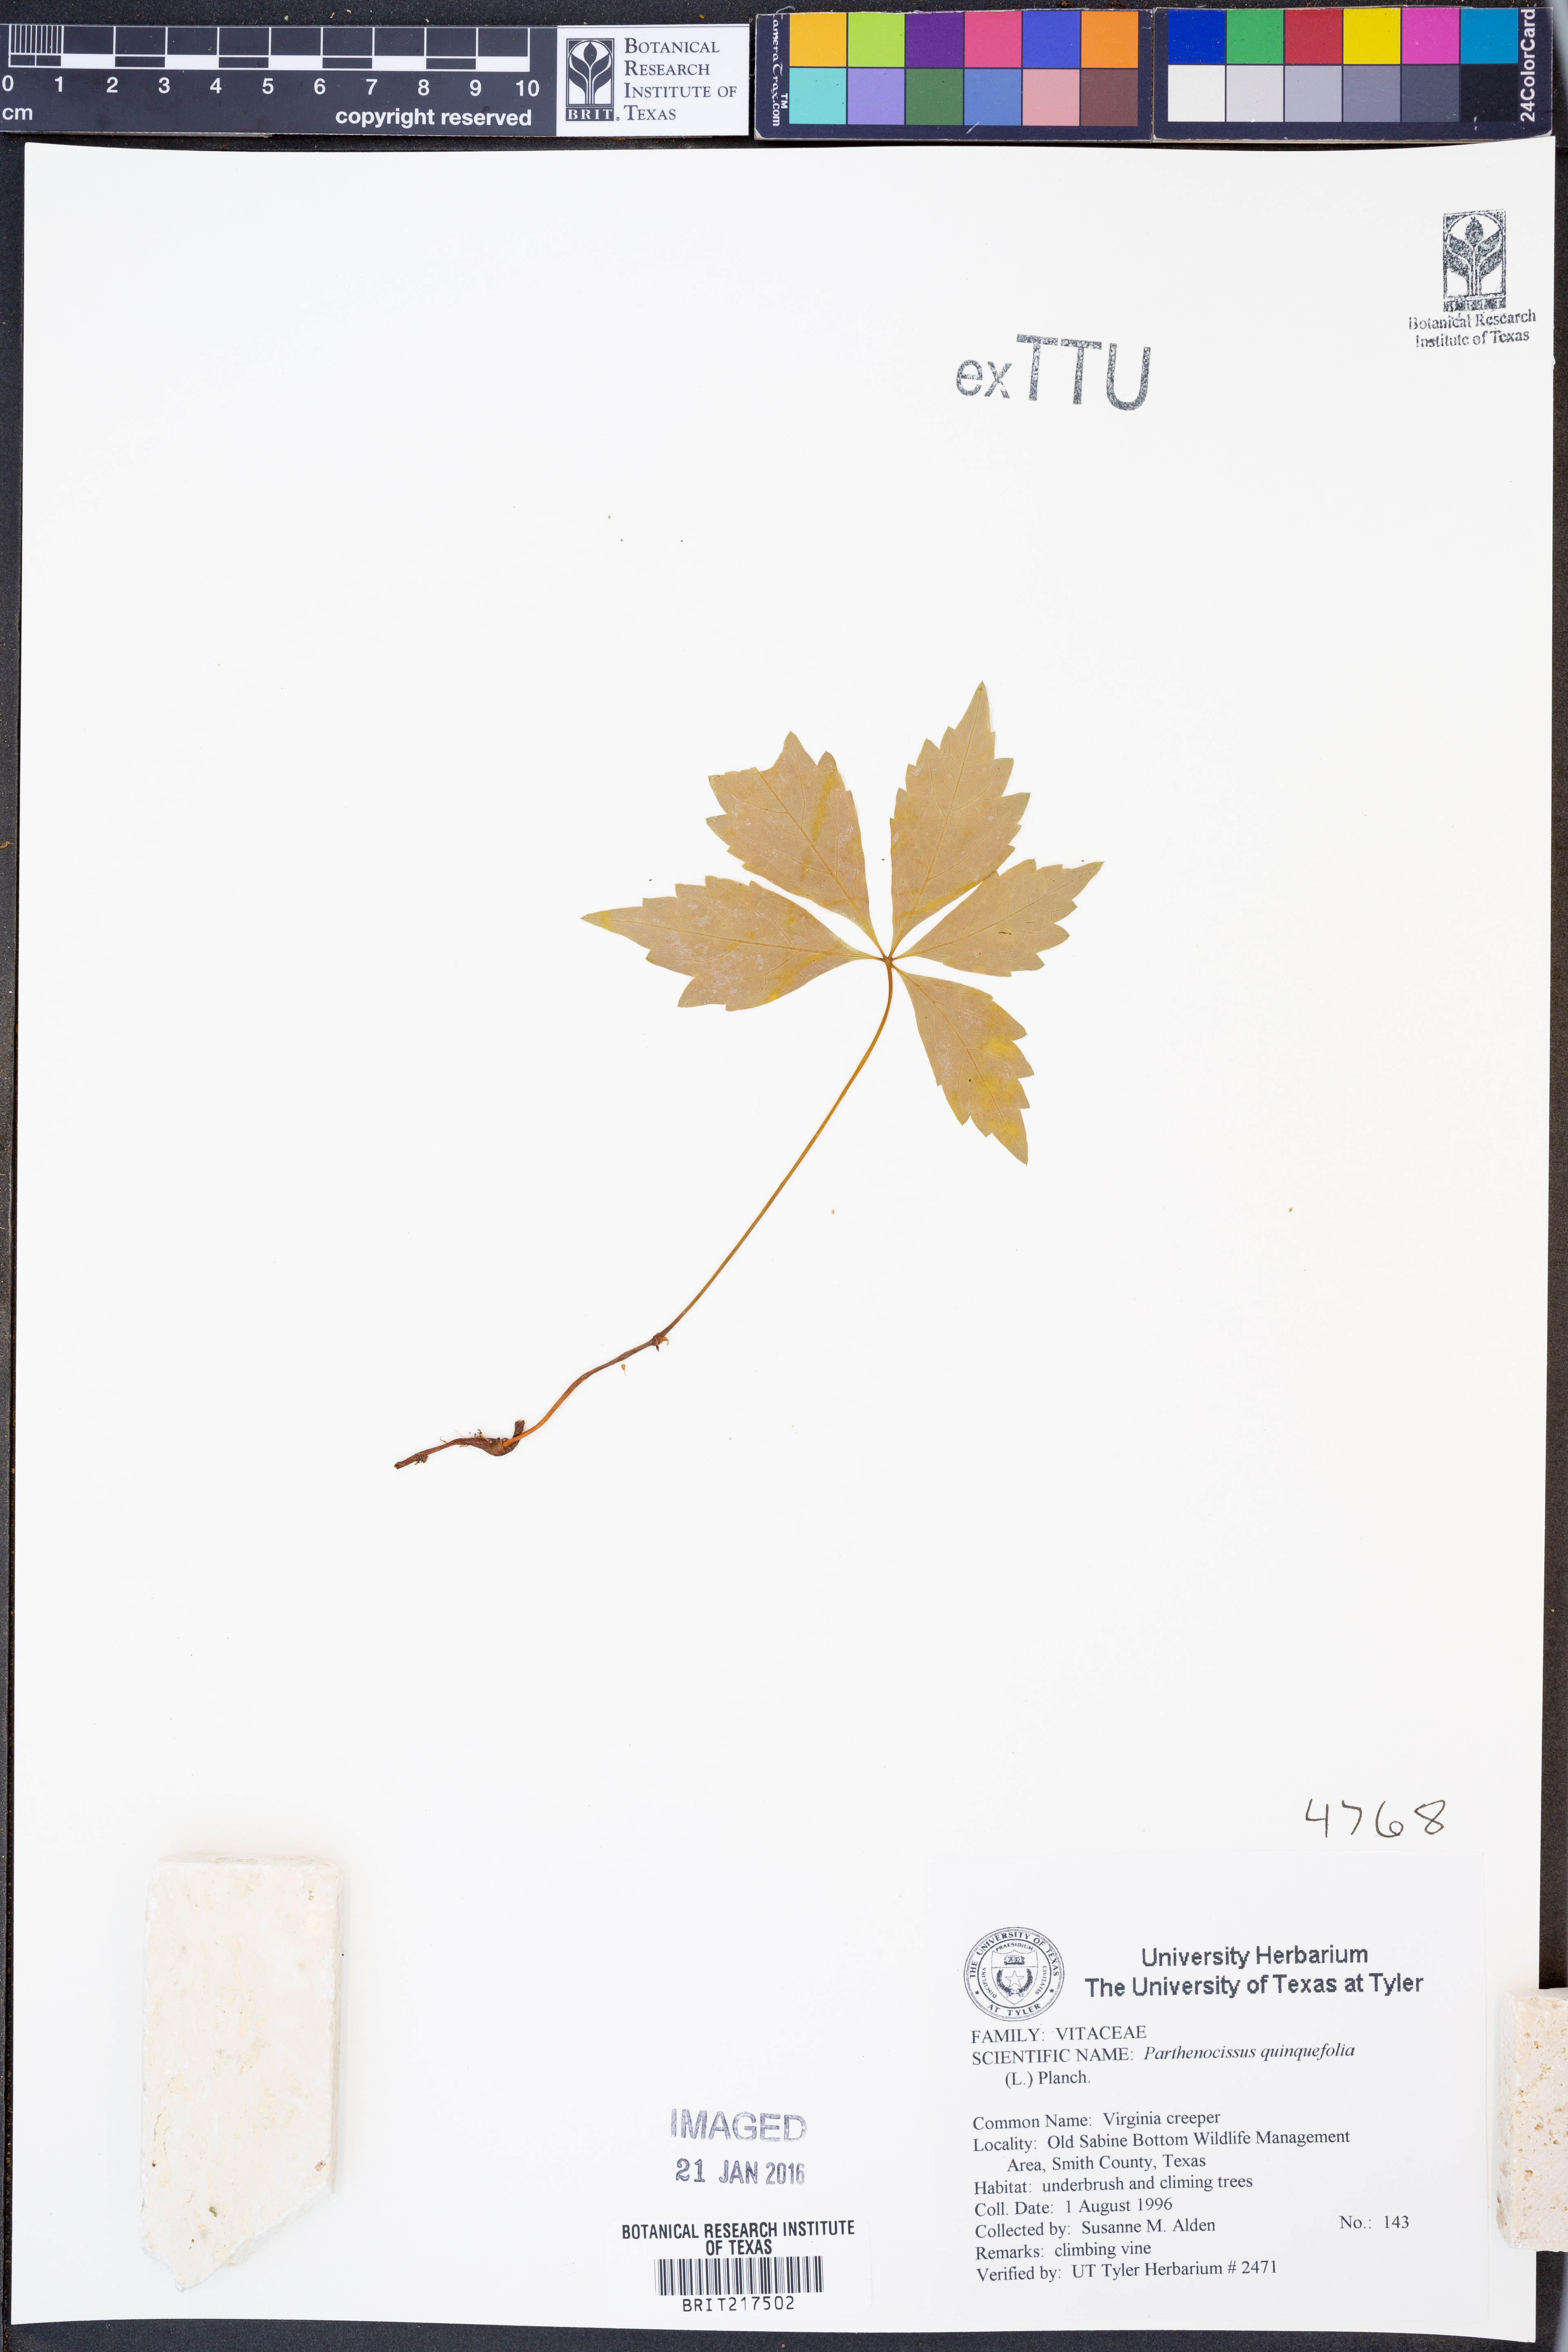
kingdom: Plantae
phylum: Tracheophyta
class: Magnoliopsida
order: Vitales
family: Vitaceae
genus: Parthenocissus
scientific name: Parthenocissus quinquefolia
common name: Virginia-creeper
